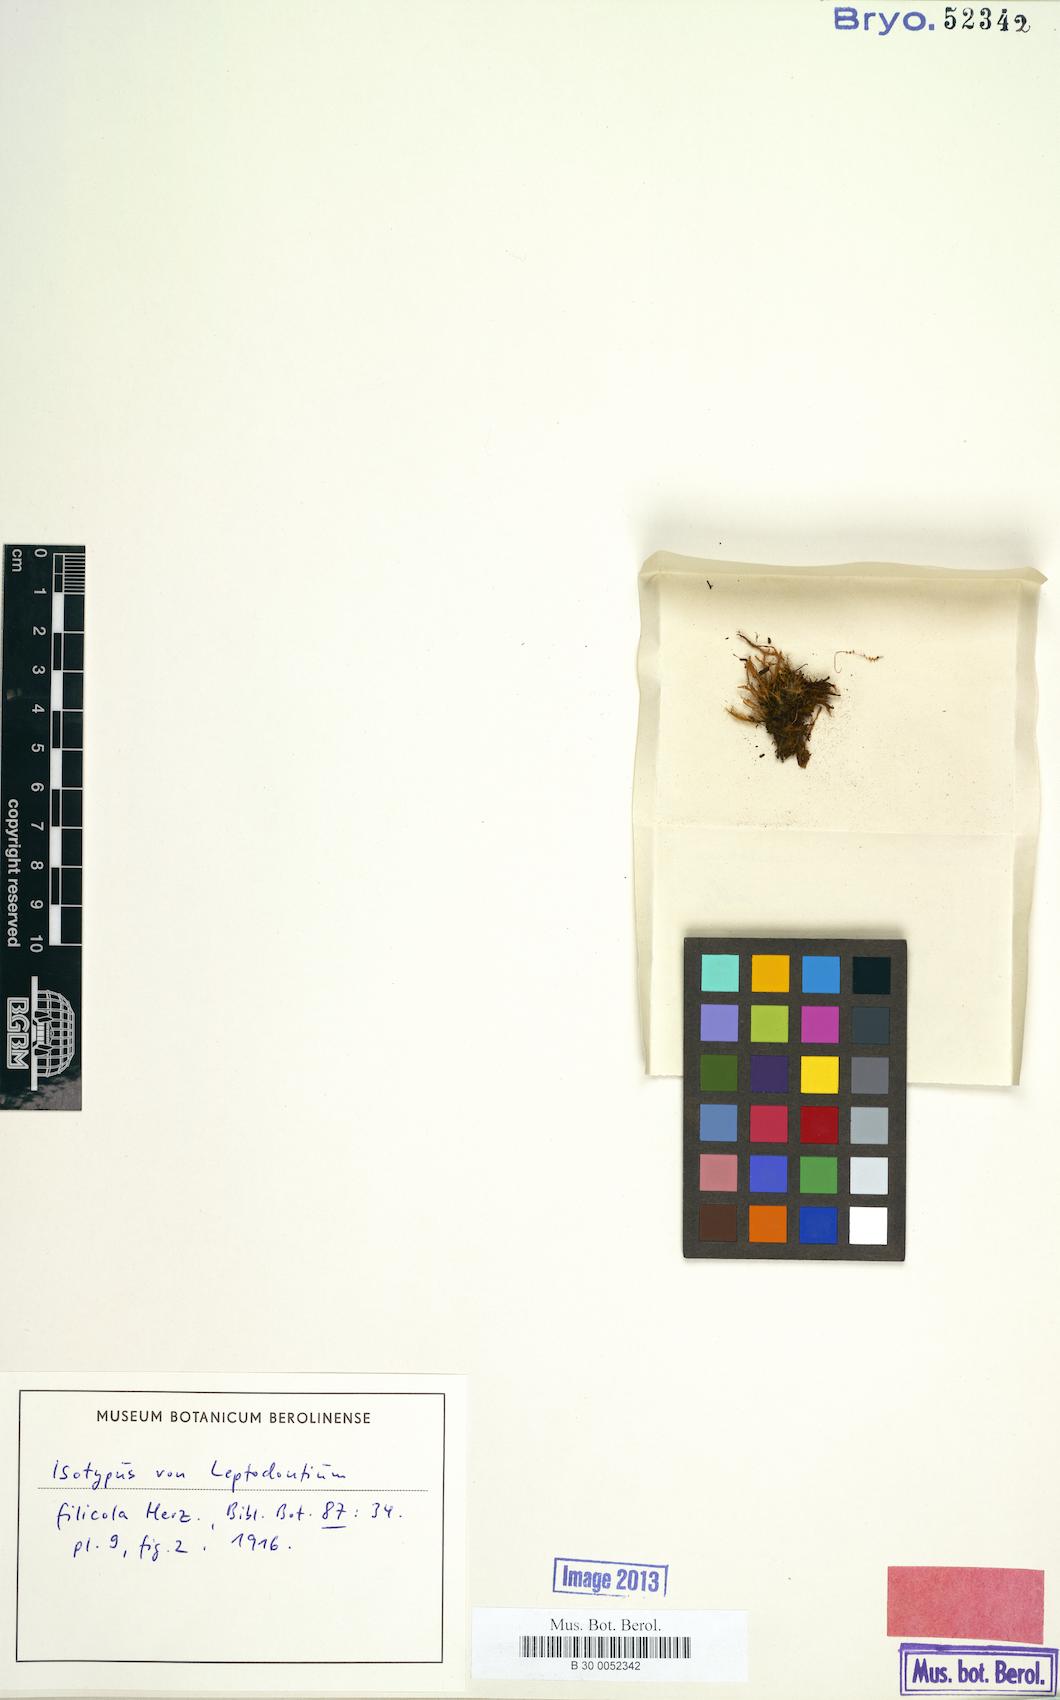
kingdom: Plantae
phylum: Bryophyta
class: Bryopsida
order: Pottiales
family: Pottiaceae
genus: Leptodontium
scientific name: Leptodontium filicola
